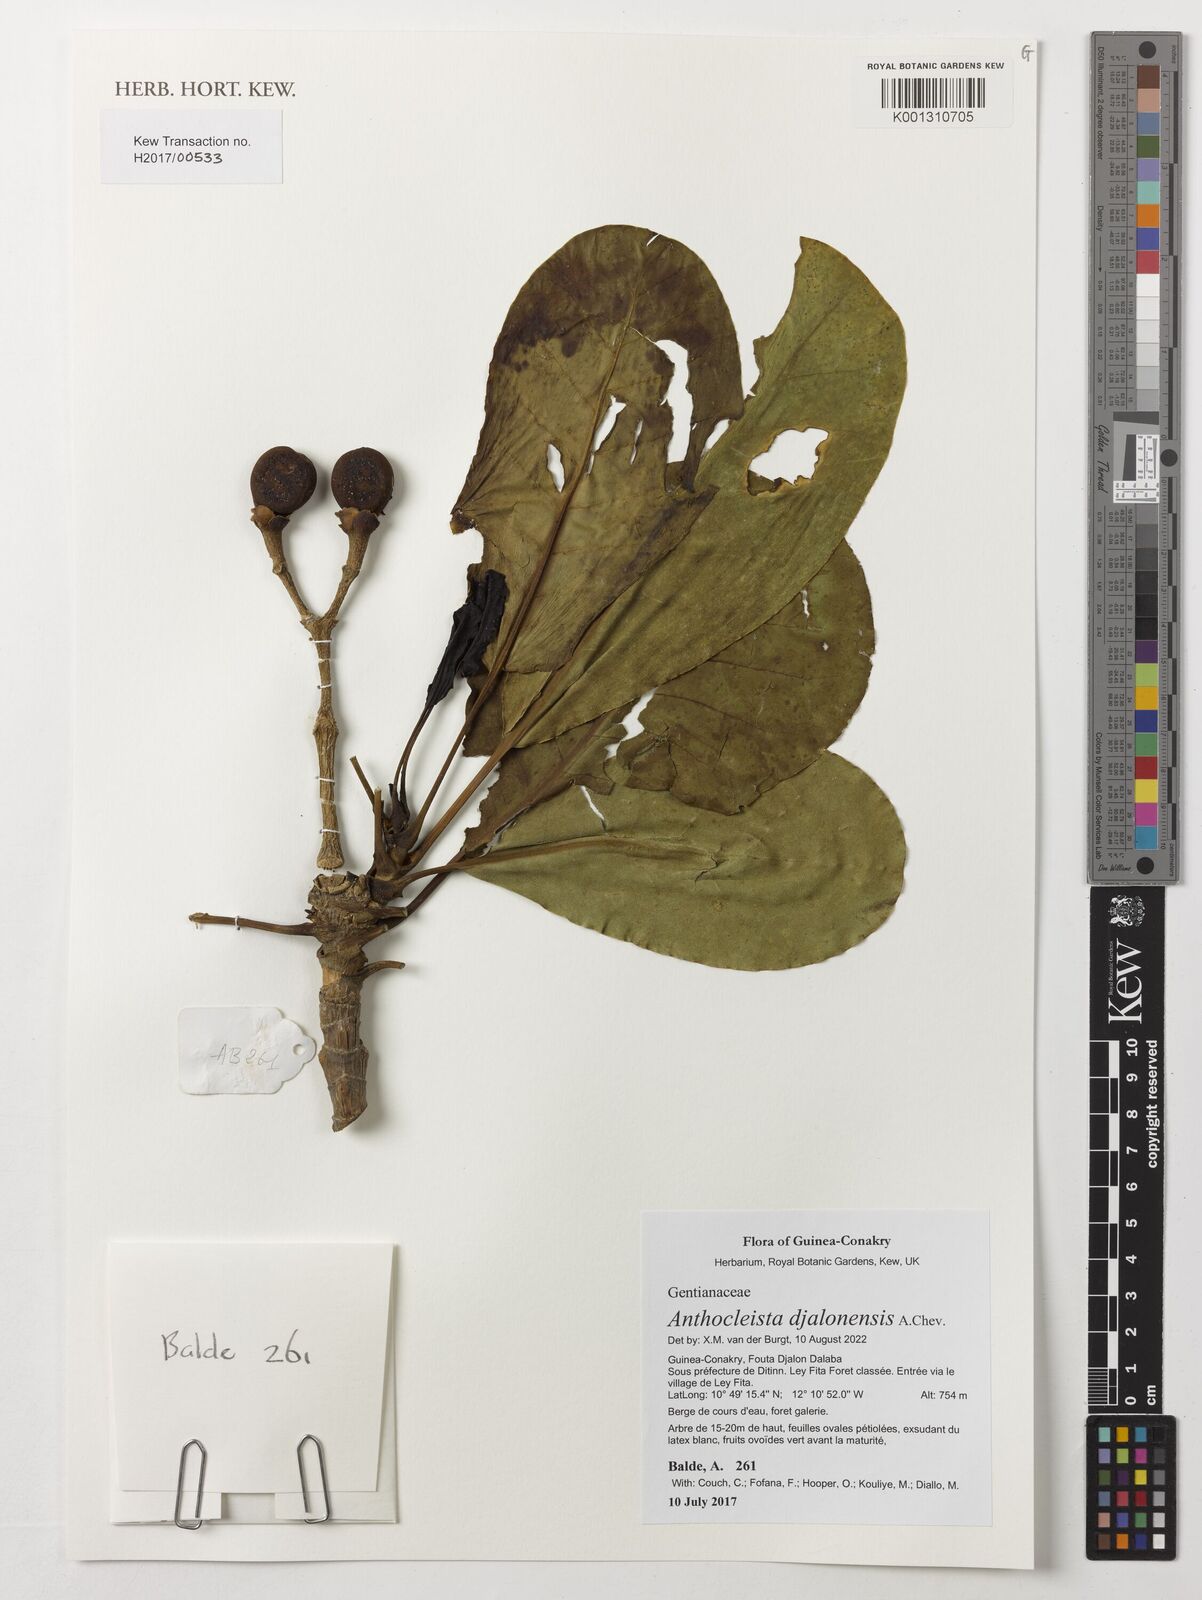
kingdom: Plantae
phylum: Tracheophyta
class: Magnoliopsida
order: Gentianales
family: Gentianaceae
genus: Anthocleista
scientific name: Anthocleista djalonensis
